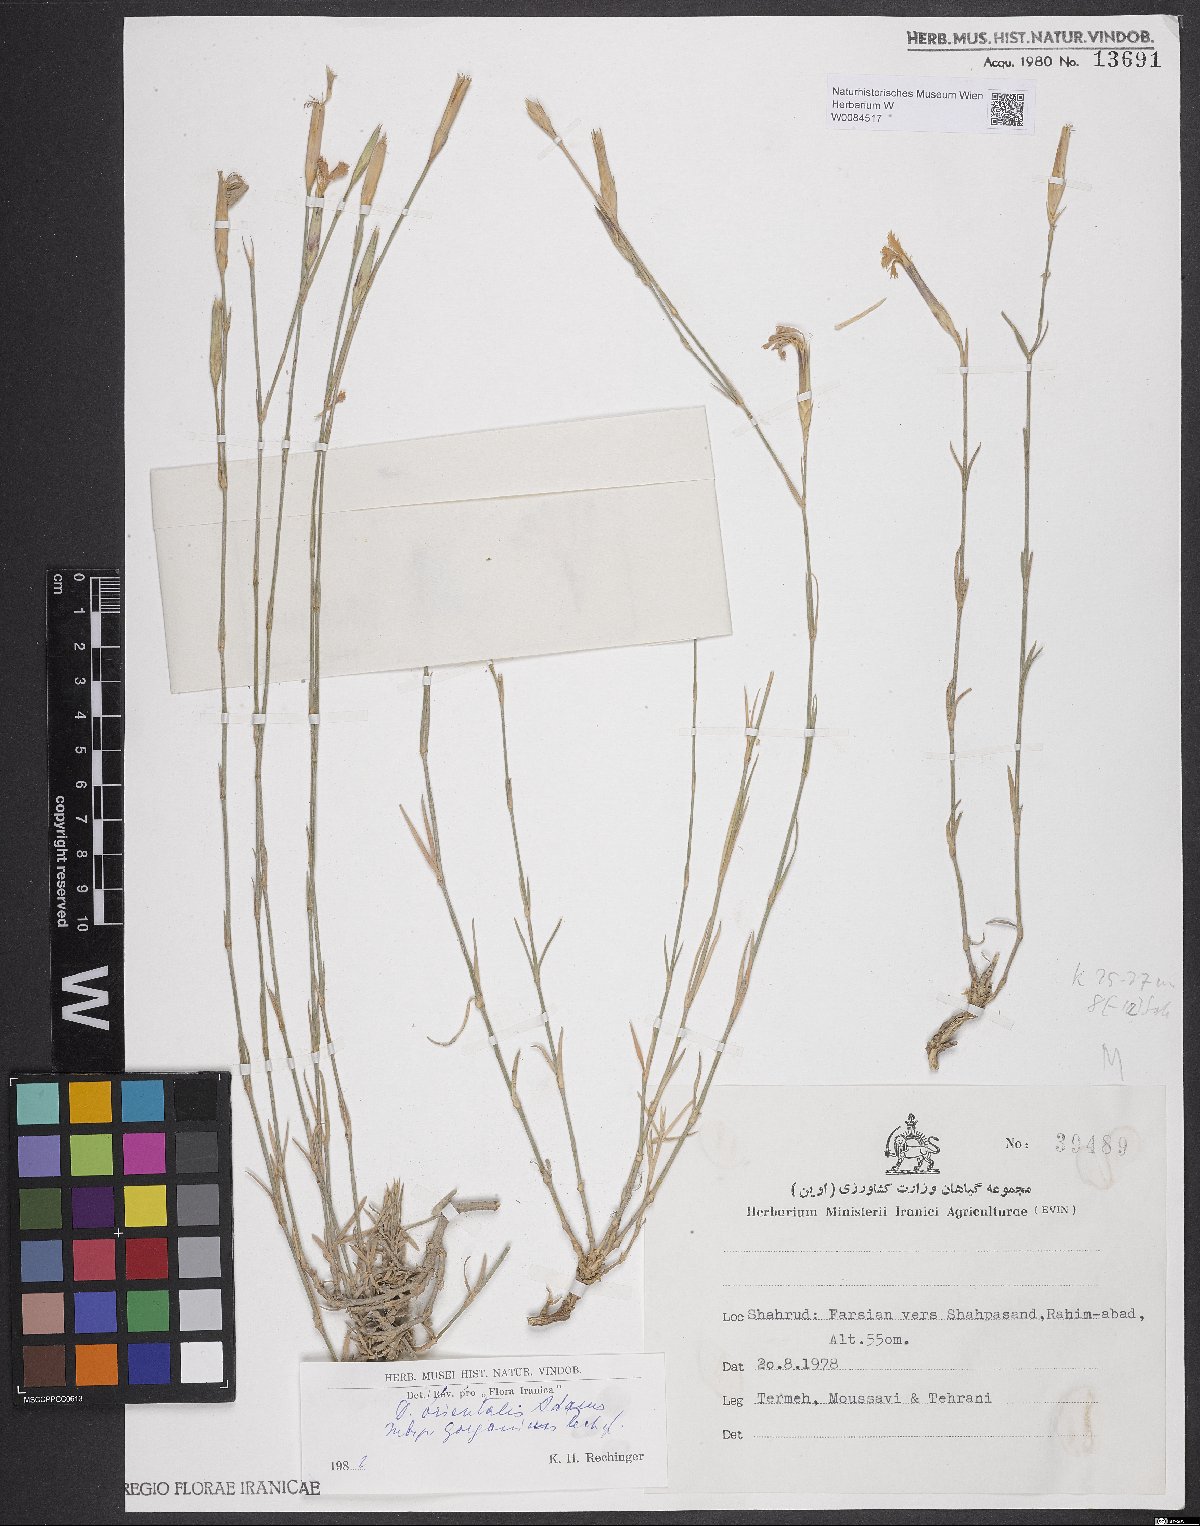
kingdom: Plantae
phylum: Tracheophyta
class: Magnoliopsida
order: Caryophyllales
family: Caryophyllaceae
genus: Dianthus
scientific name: Dianthus orientalis
